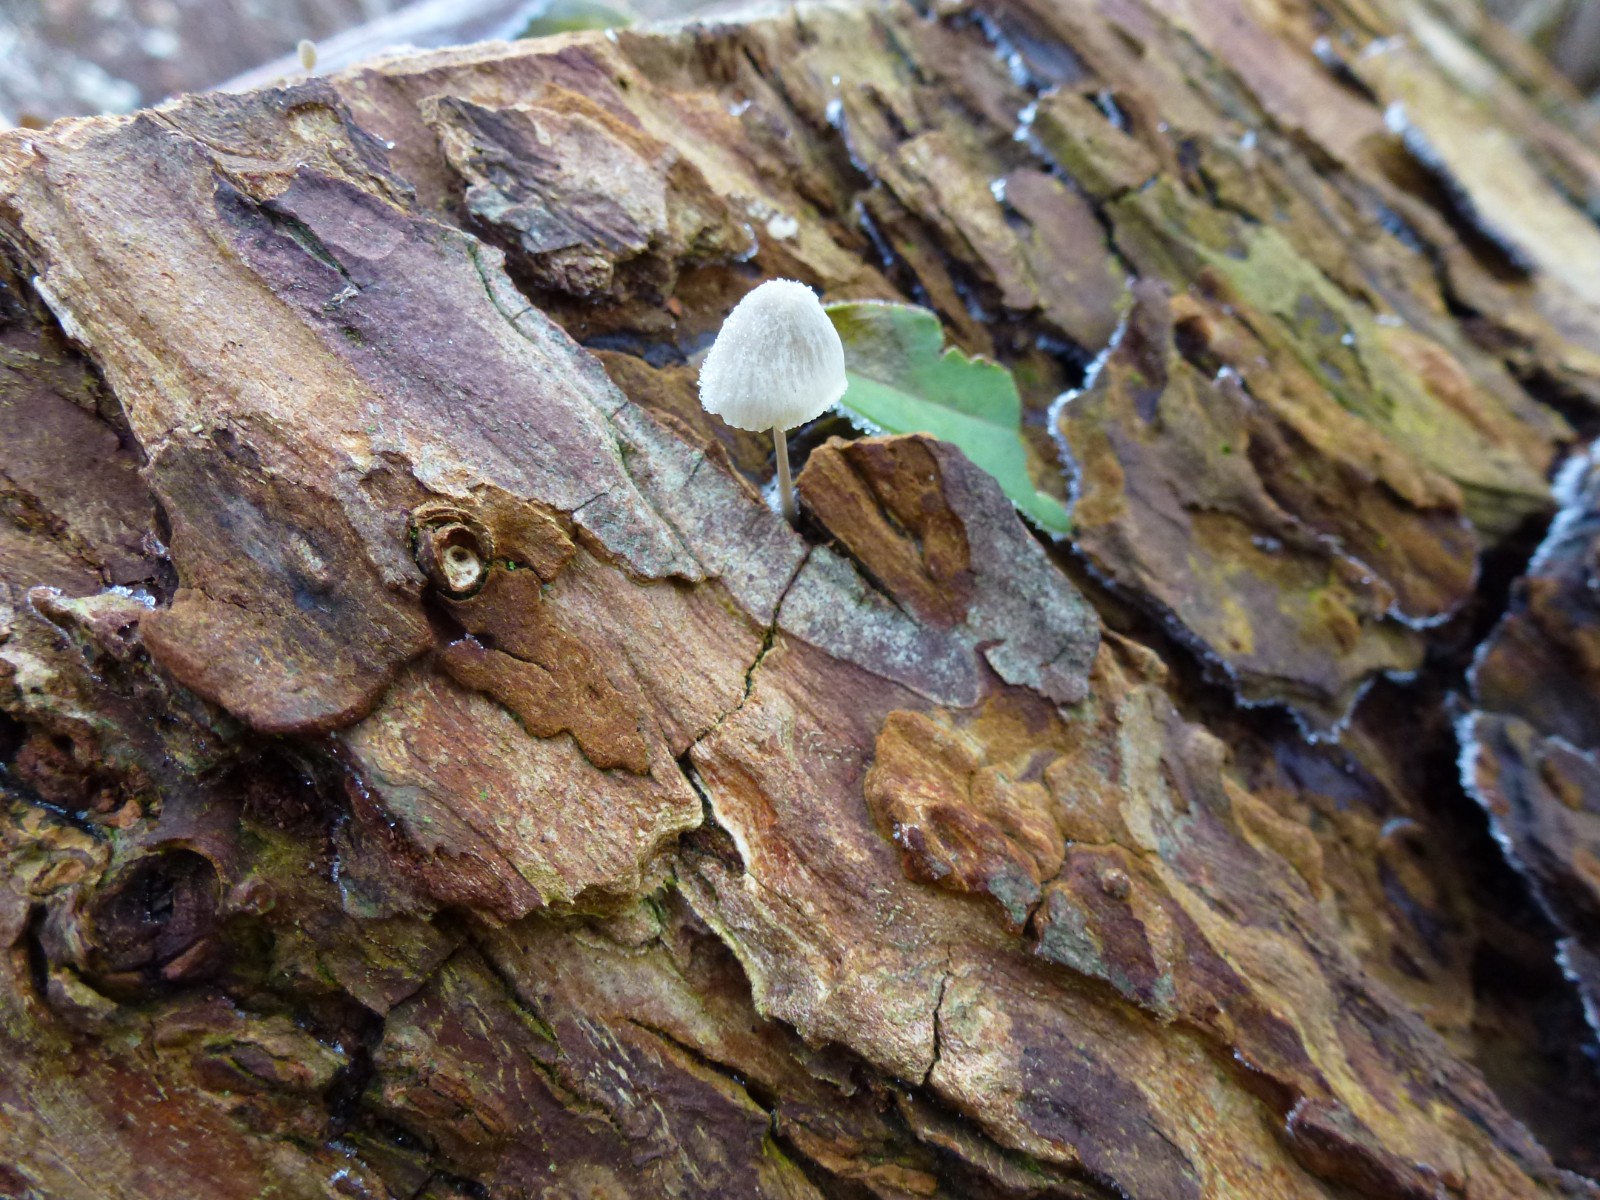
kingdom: Fungi
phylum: Basidiomycota
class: Agaricomycetes
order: Agaricales
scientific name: Agaricales
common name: champignonordenen
